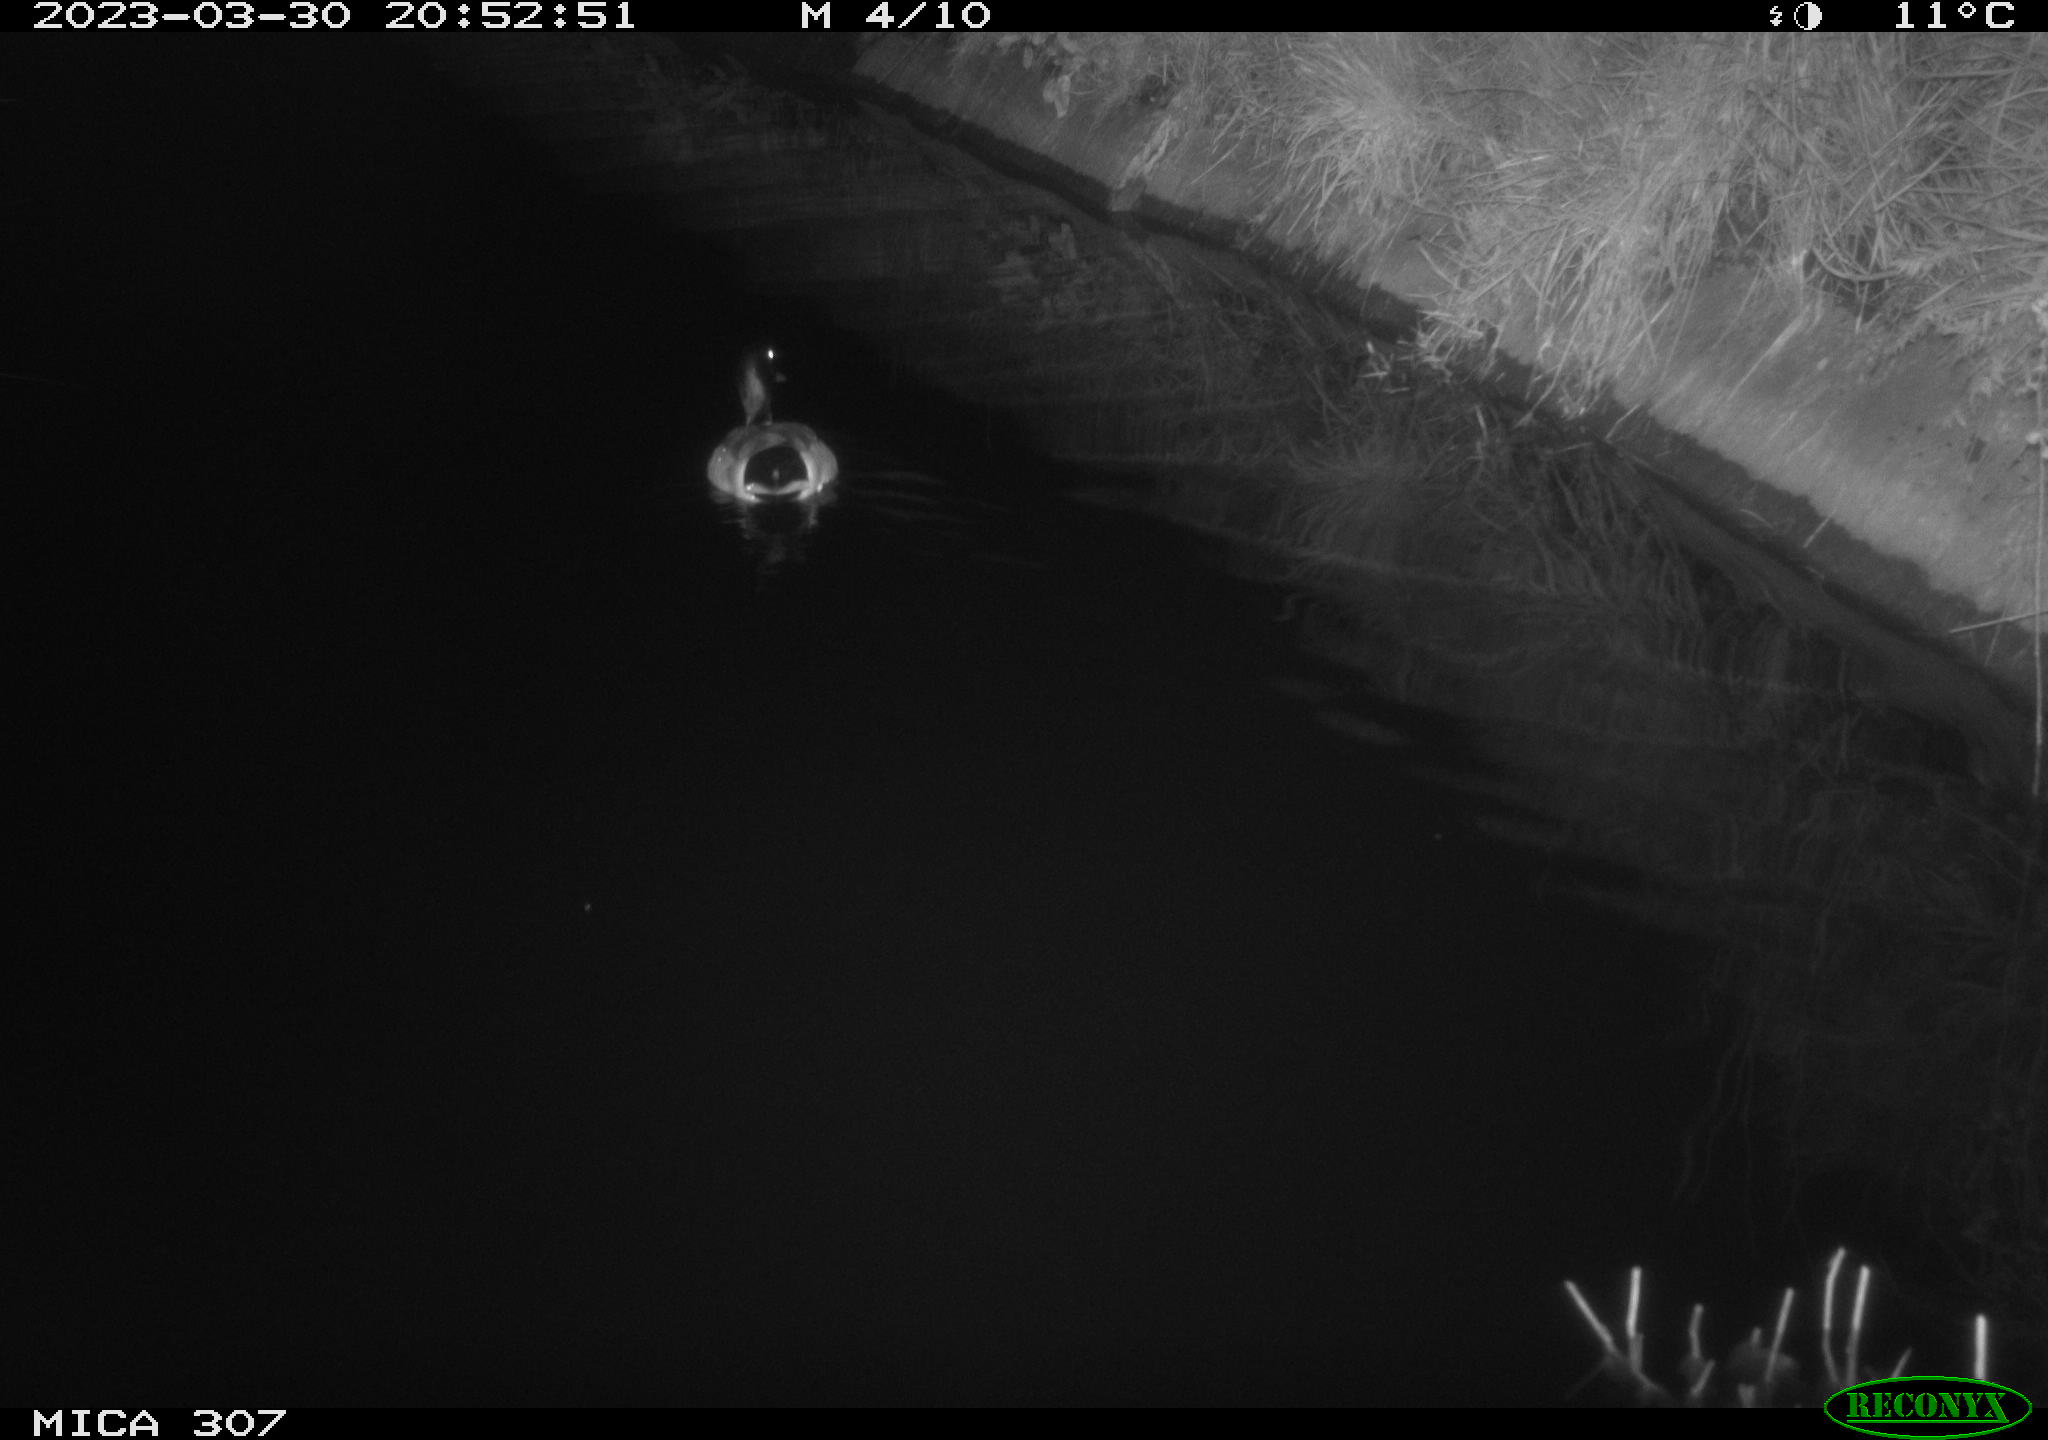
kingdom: Animalia
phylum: Chordata
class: Aves
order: Anseriformes
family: Anatidae
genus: Anas
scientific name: Anas
